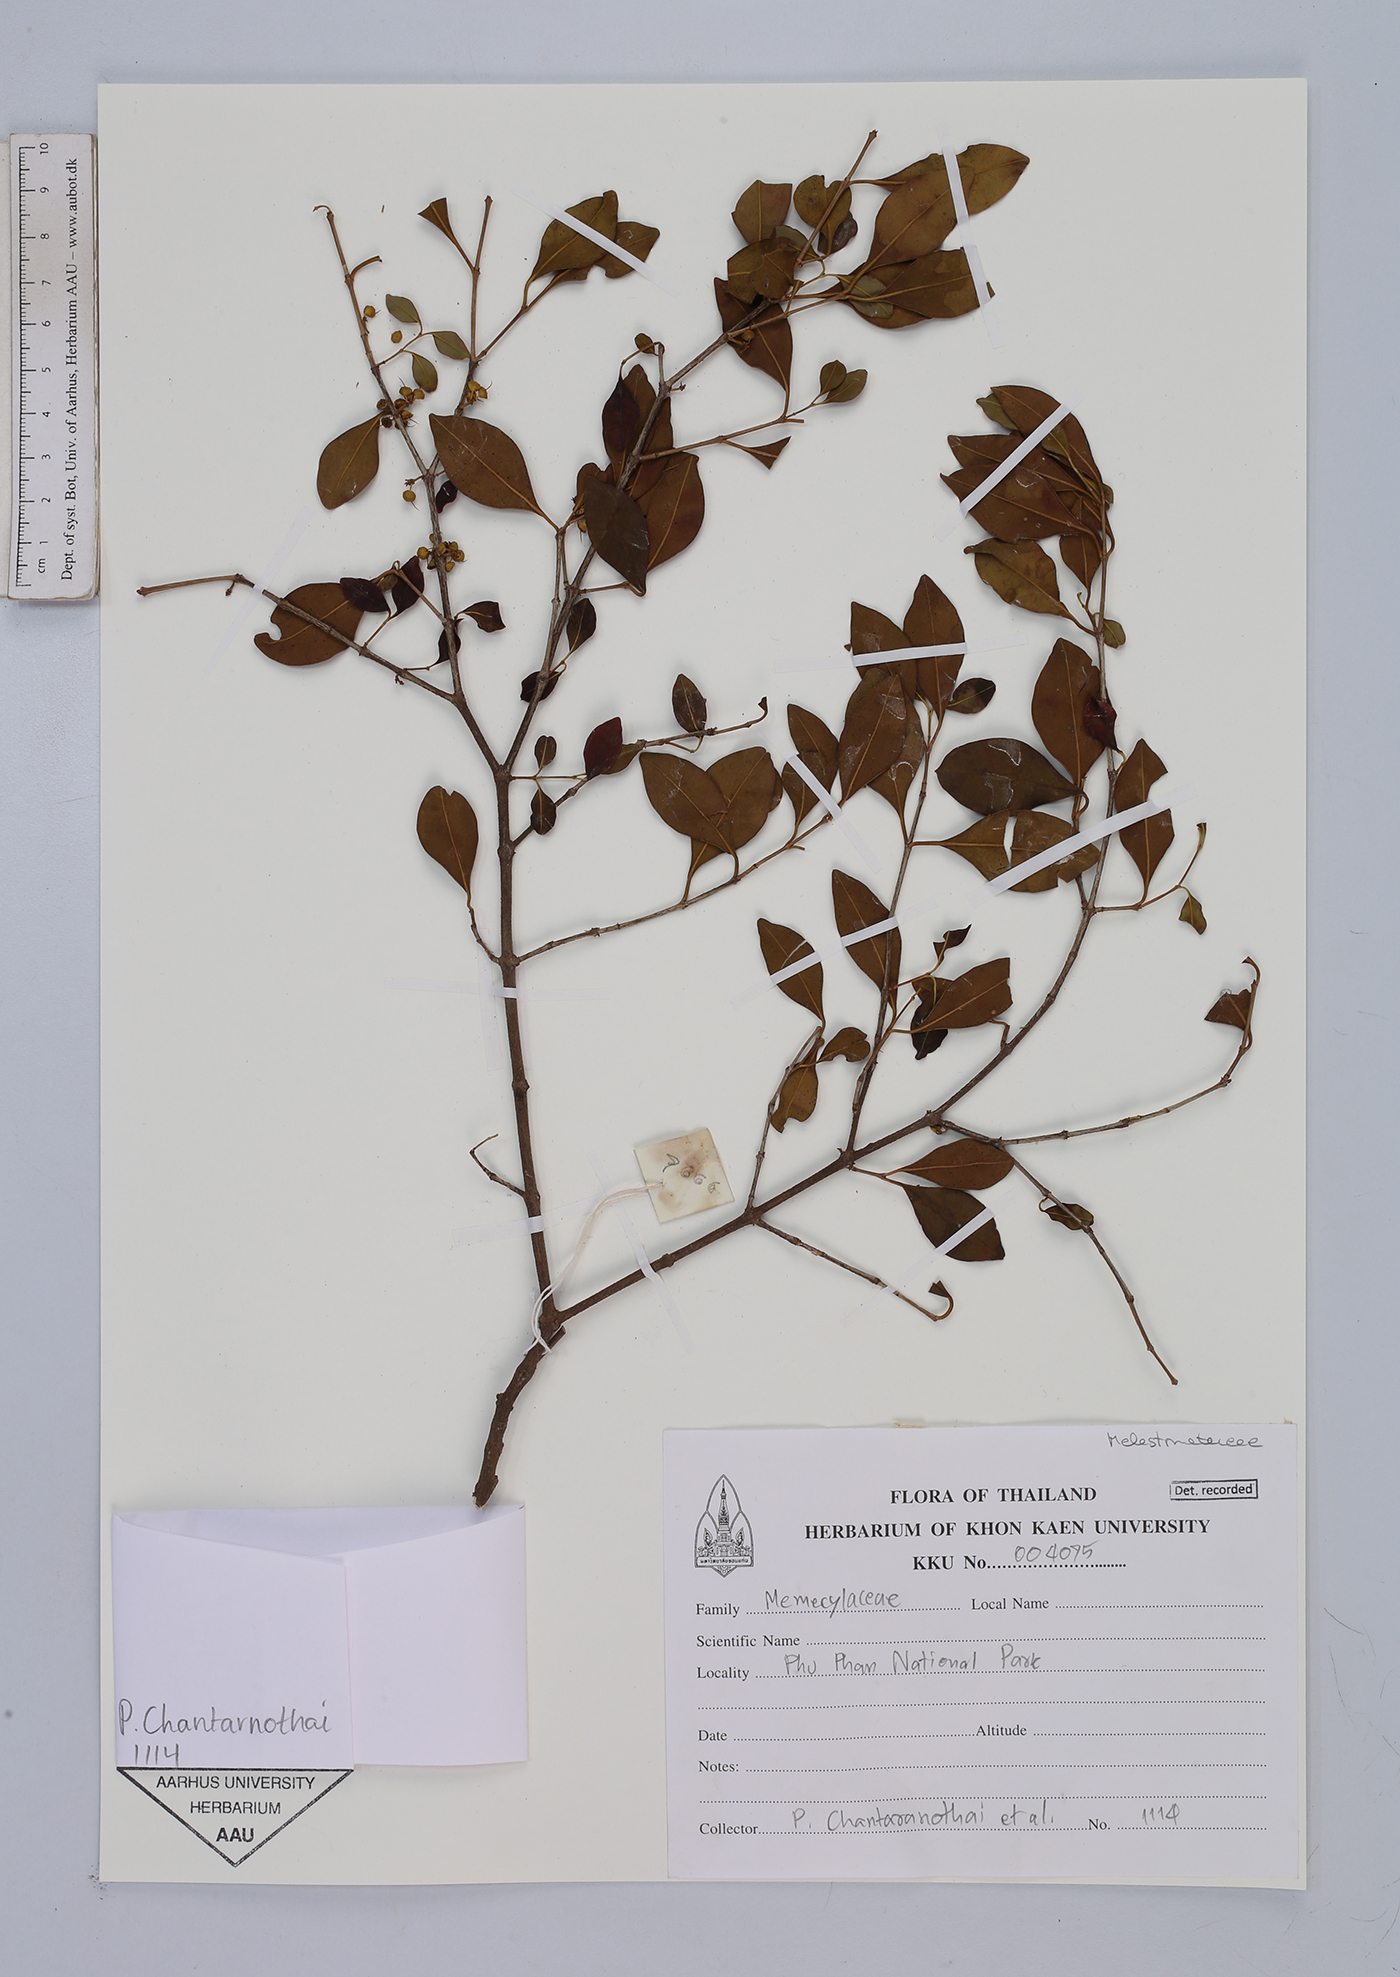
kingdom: Plantae
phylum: Tracheophyta
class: Magnoliopsida
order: Myrtales
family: Melastomataceae
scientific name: Melastomataceae
